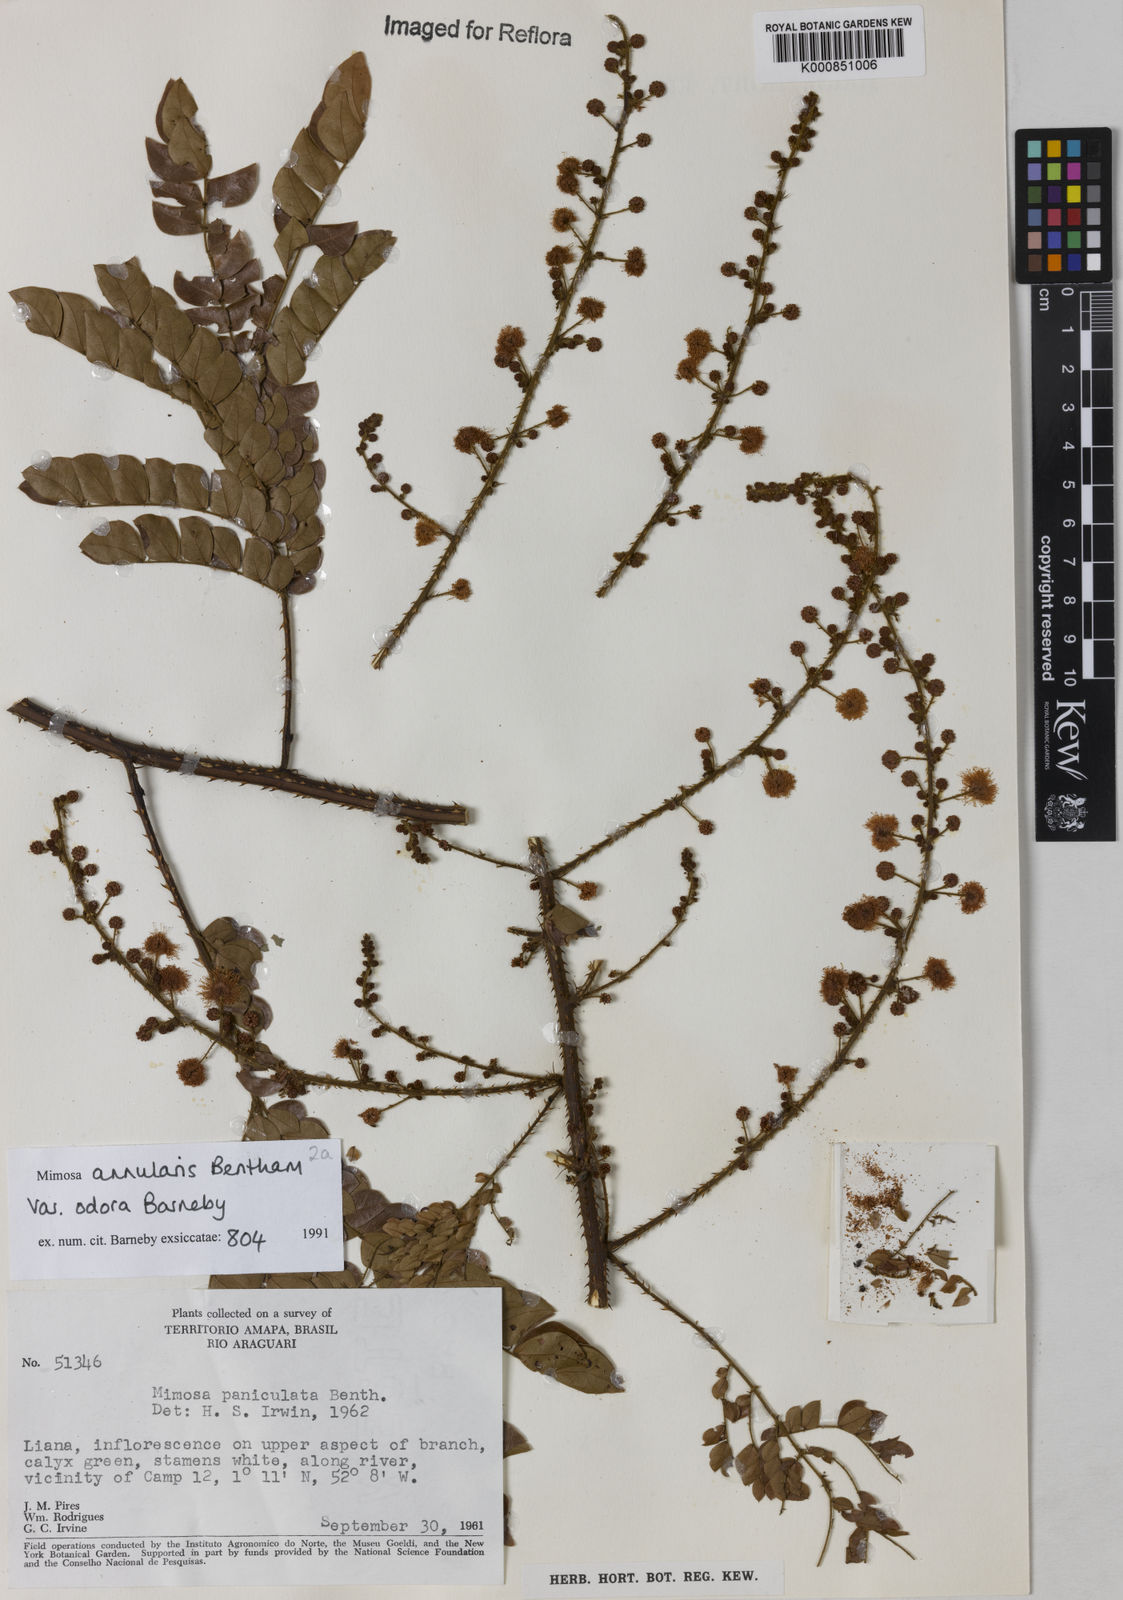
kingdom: Plantae
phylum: Tracheophyta
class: Magnoliopsida
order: Fabales
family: Fabaceae
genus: Mimosa
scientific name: Mimosa annularis
